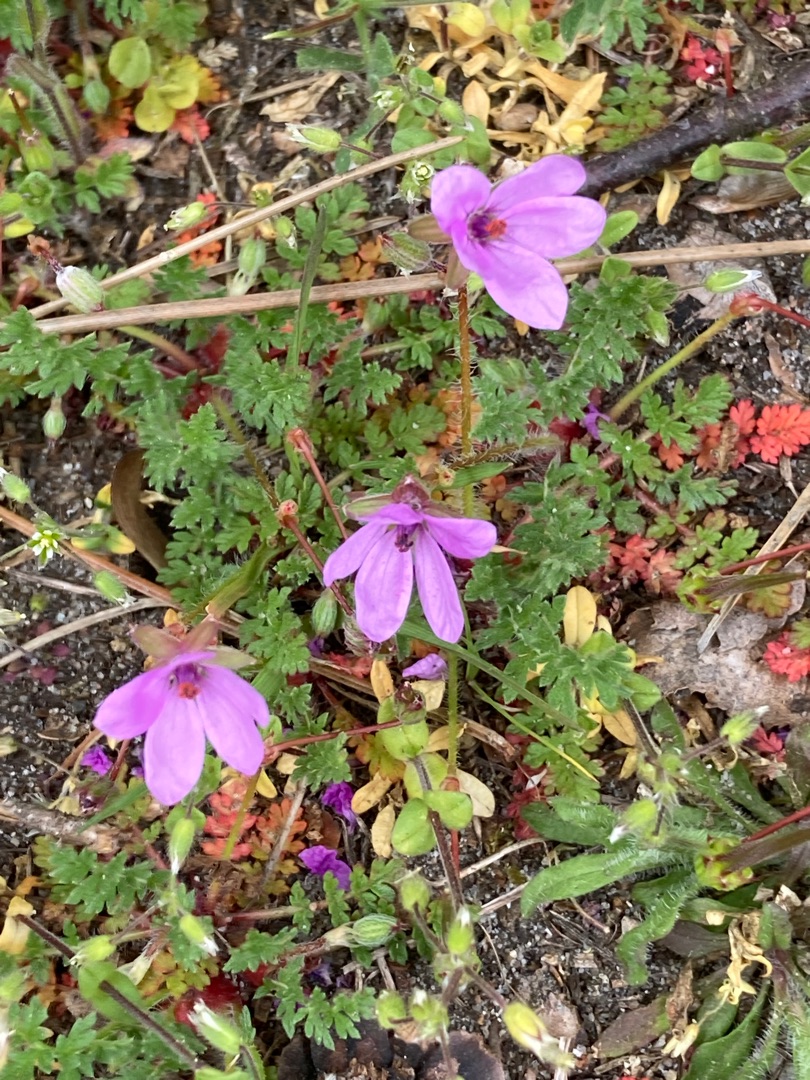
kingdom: Plantae
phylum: Tracheophyta
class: Magnoliopsida
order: Geraniales
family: Geraniaceae
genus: Erodium
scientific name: Erodium cicutarium
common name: Hejrenæb
